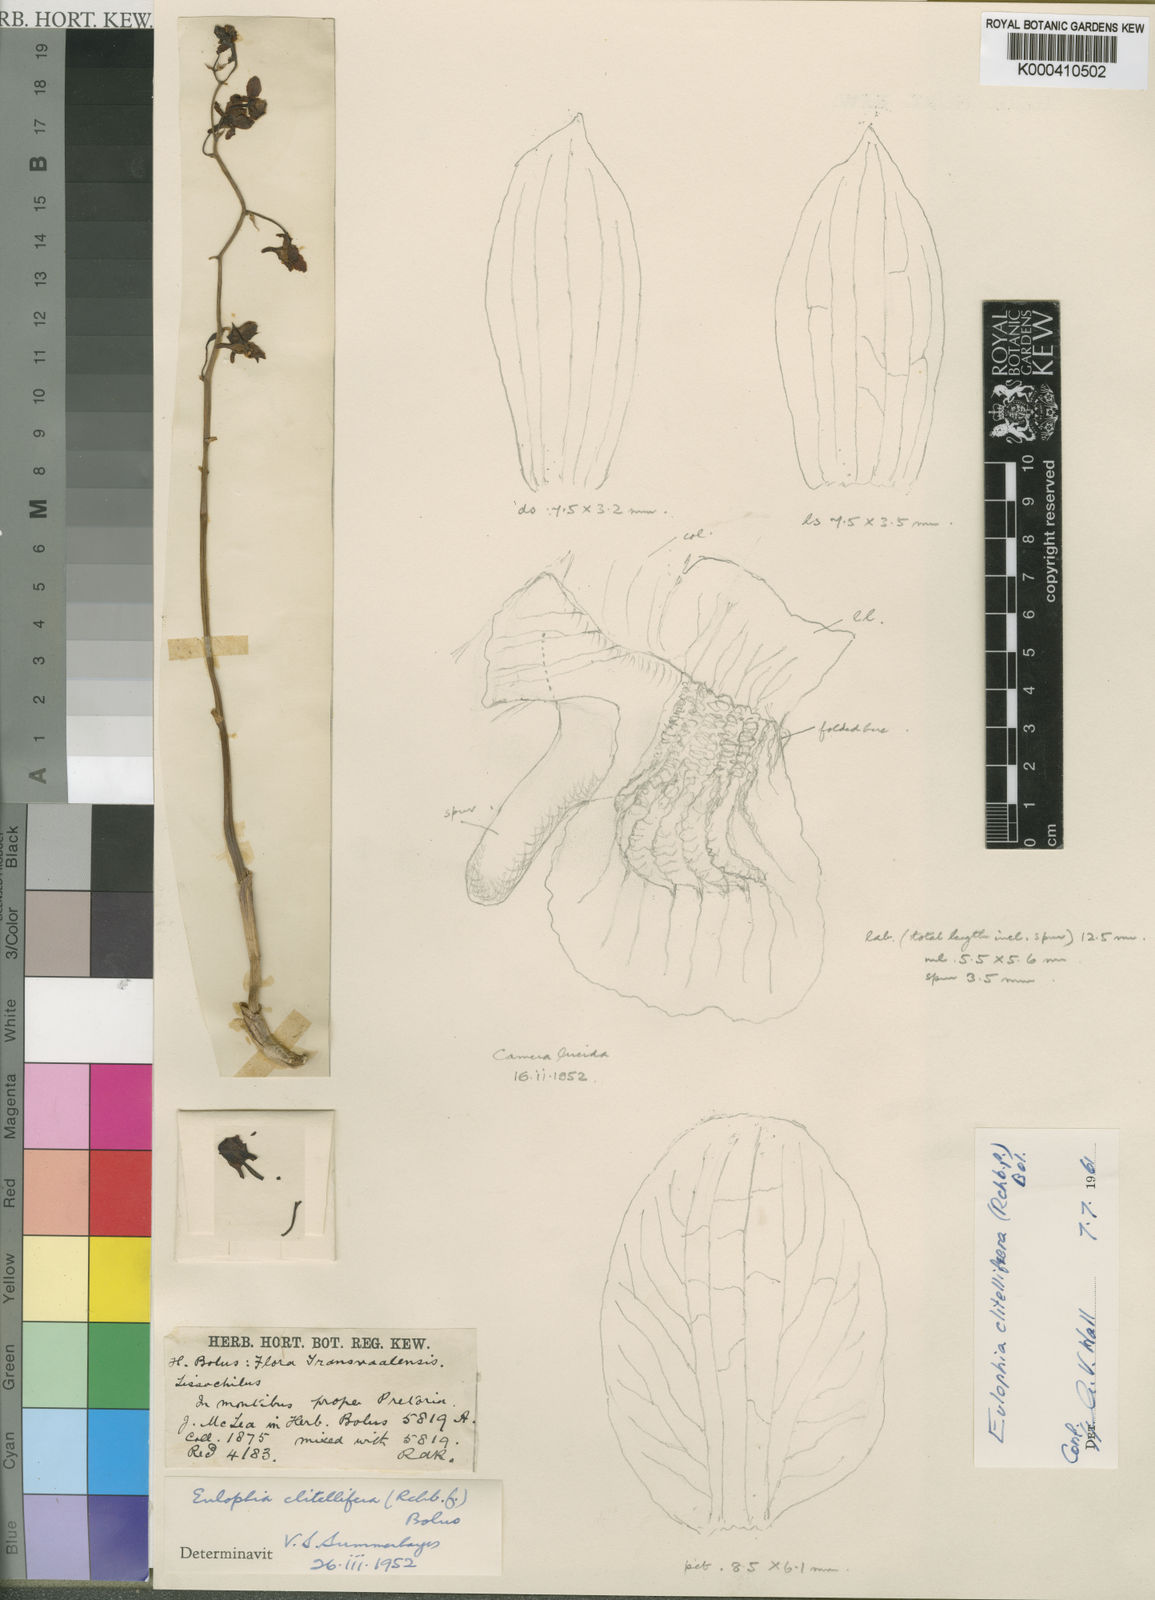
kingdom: Plantae
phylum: Tracheophyta
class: Liliopsida
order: Asparagales
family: Orchidaceae
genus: Eulophia
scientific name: Eulophia clitellifera
